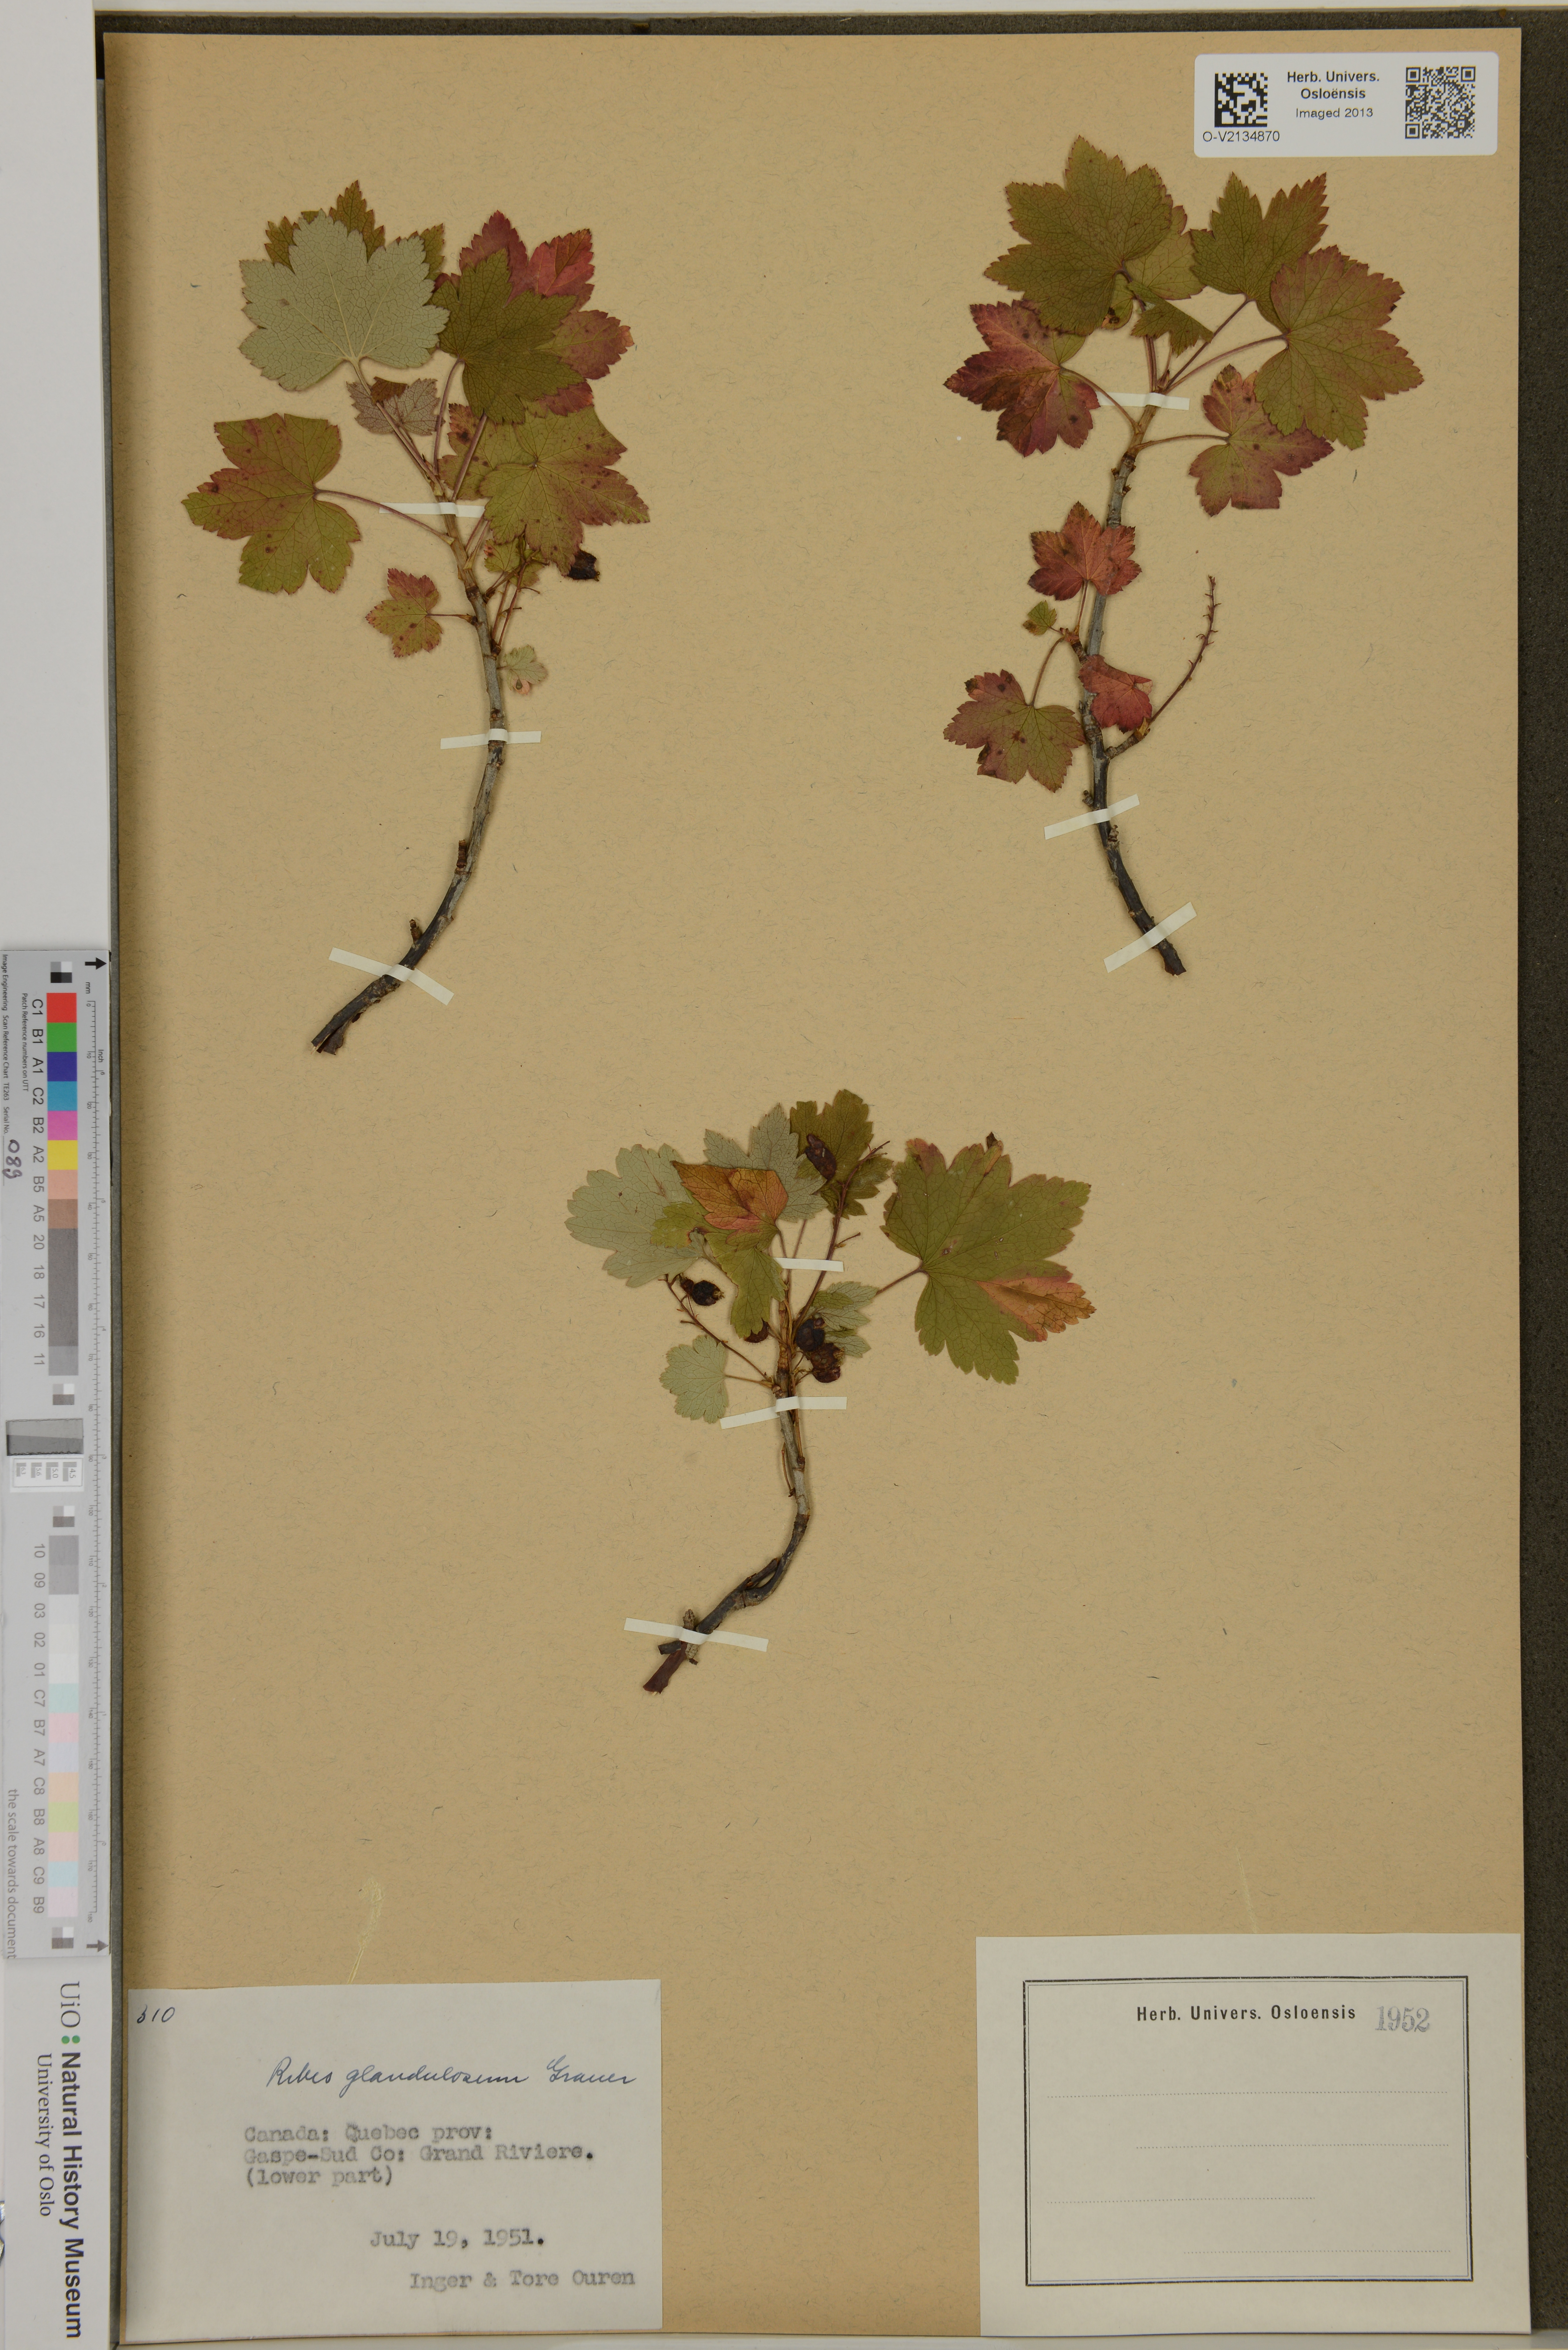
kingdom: Plantae
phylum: Tracheophyta
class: Magnoliopsida
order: Saxifragales
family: Grossulariaceae
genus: Ribes
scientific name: Ribes glandulosum
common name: Skunk currant
